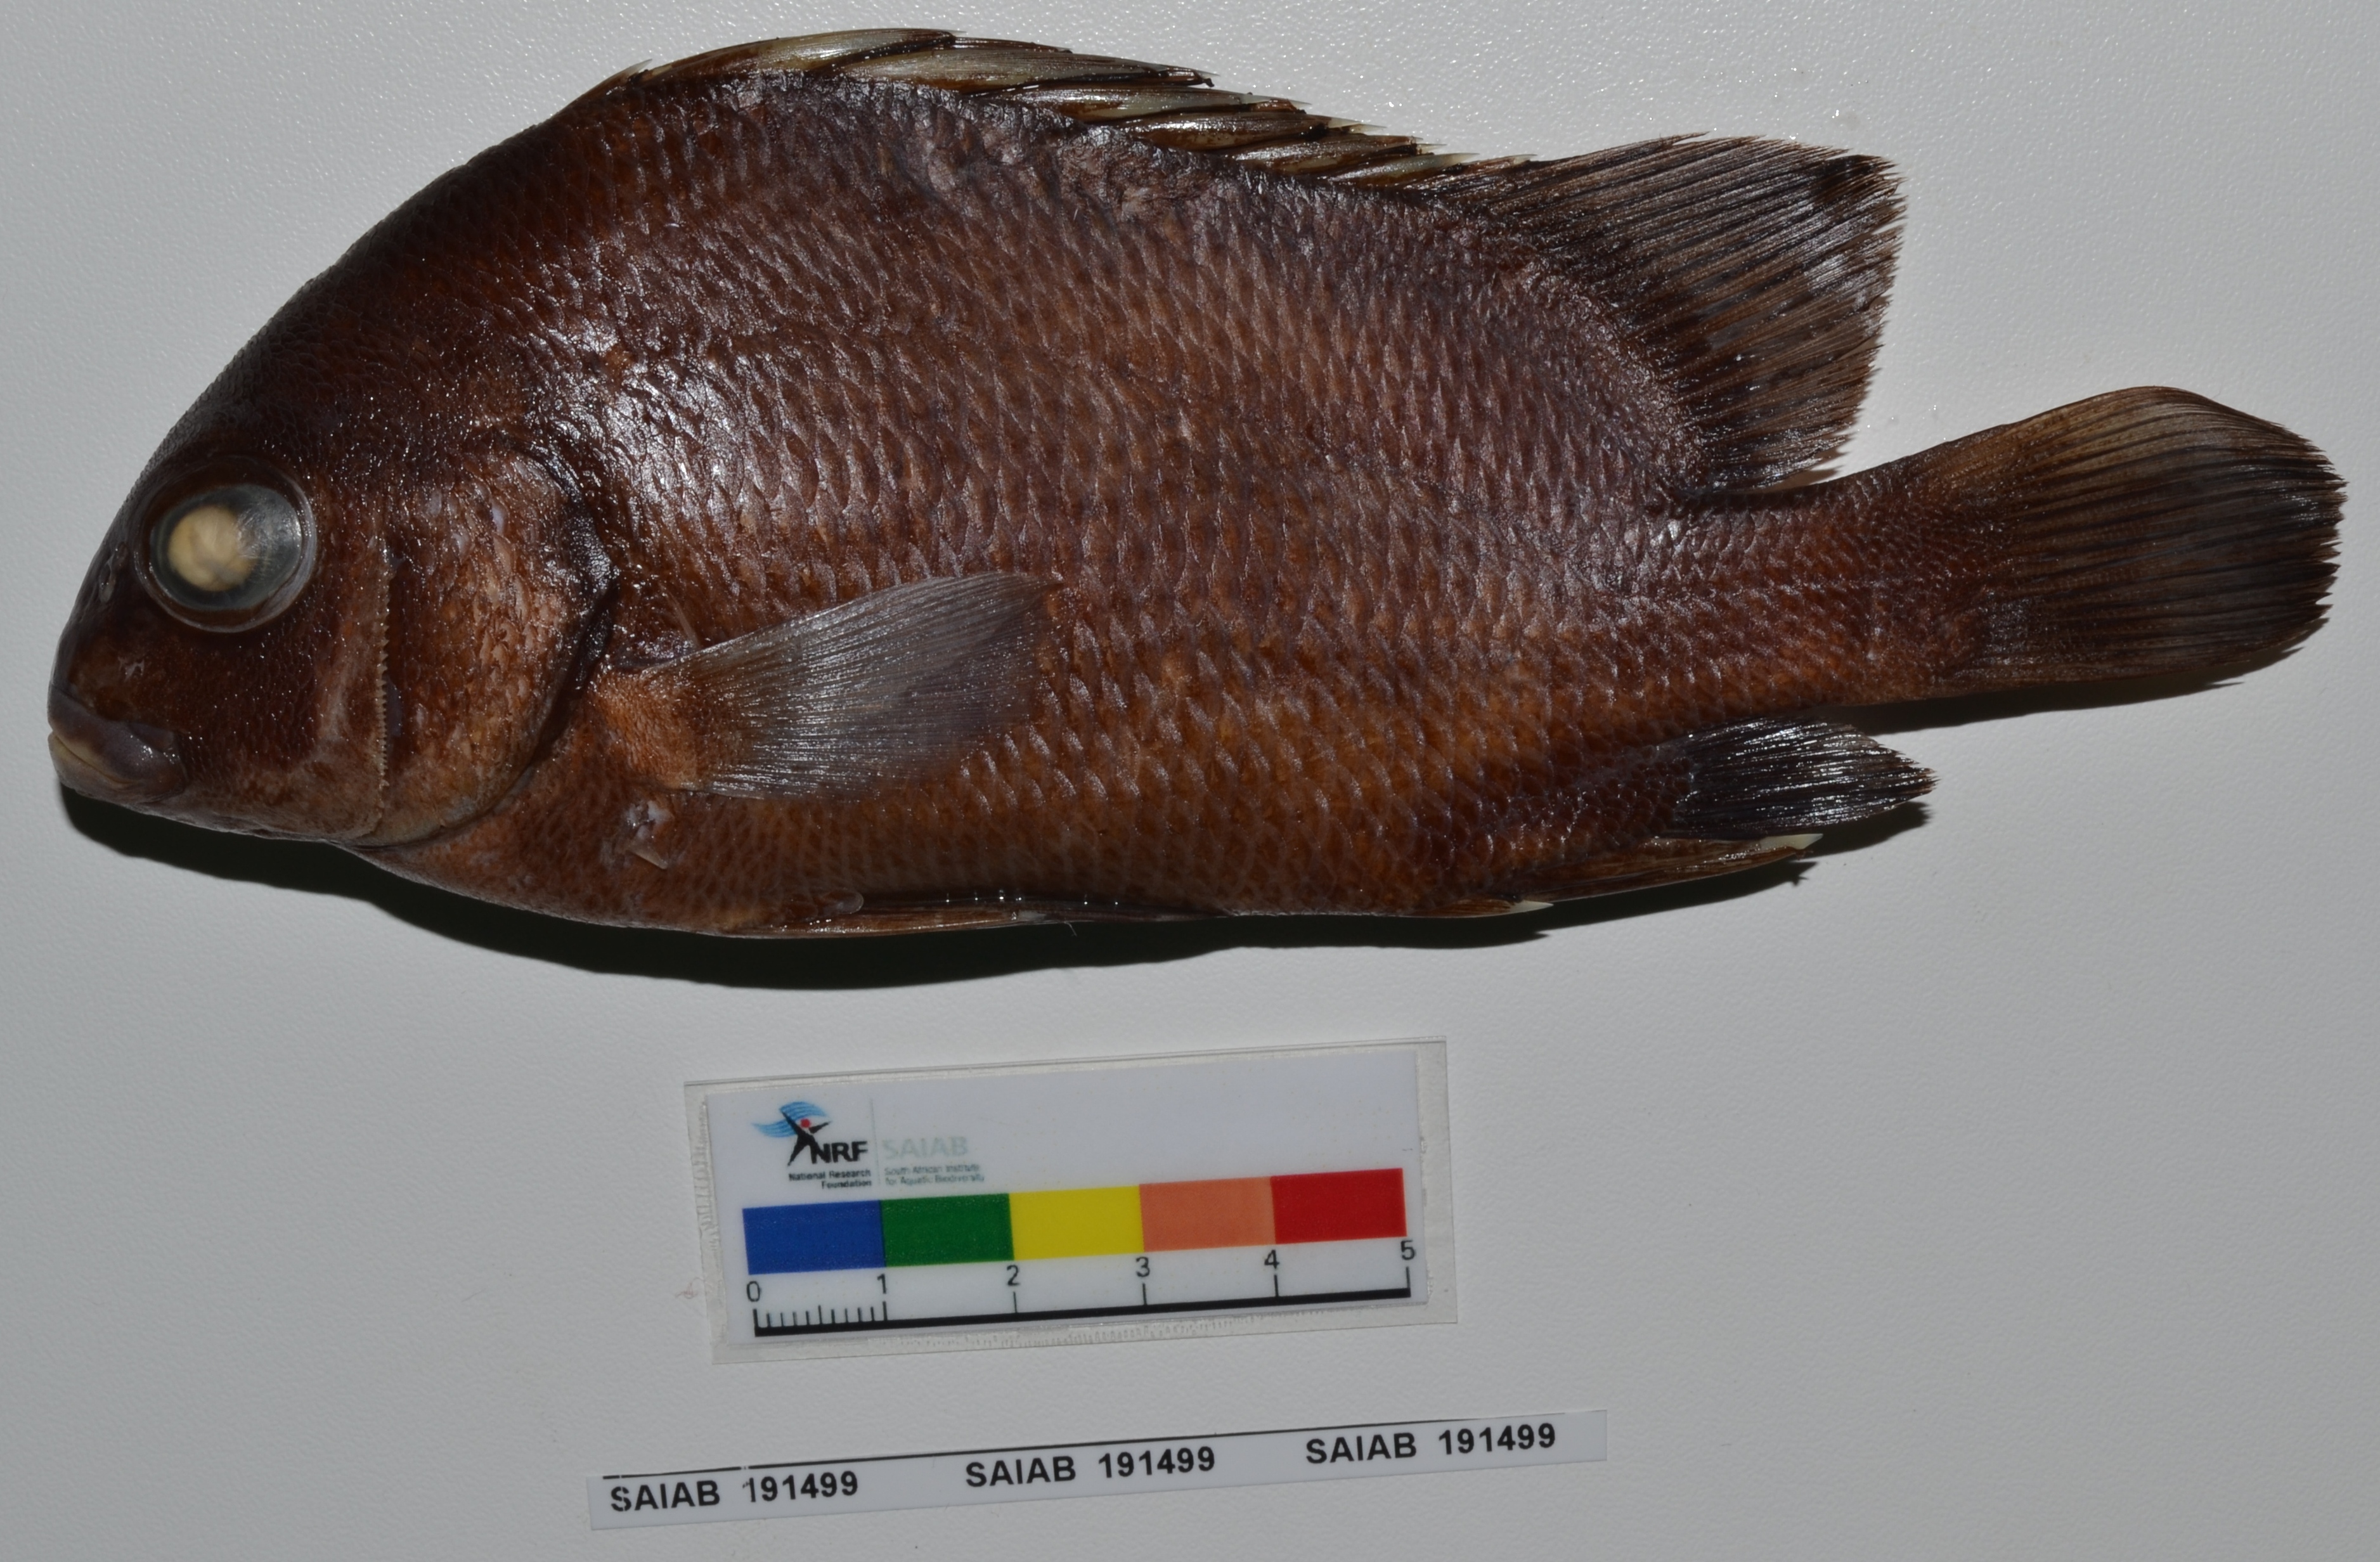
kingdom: Animalia
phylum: Chordata
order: Perciformes
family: Haemulidae
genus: Plectorhinchus
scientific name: Plectorhinchus macrolepis
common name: Biglip grunt
